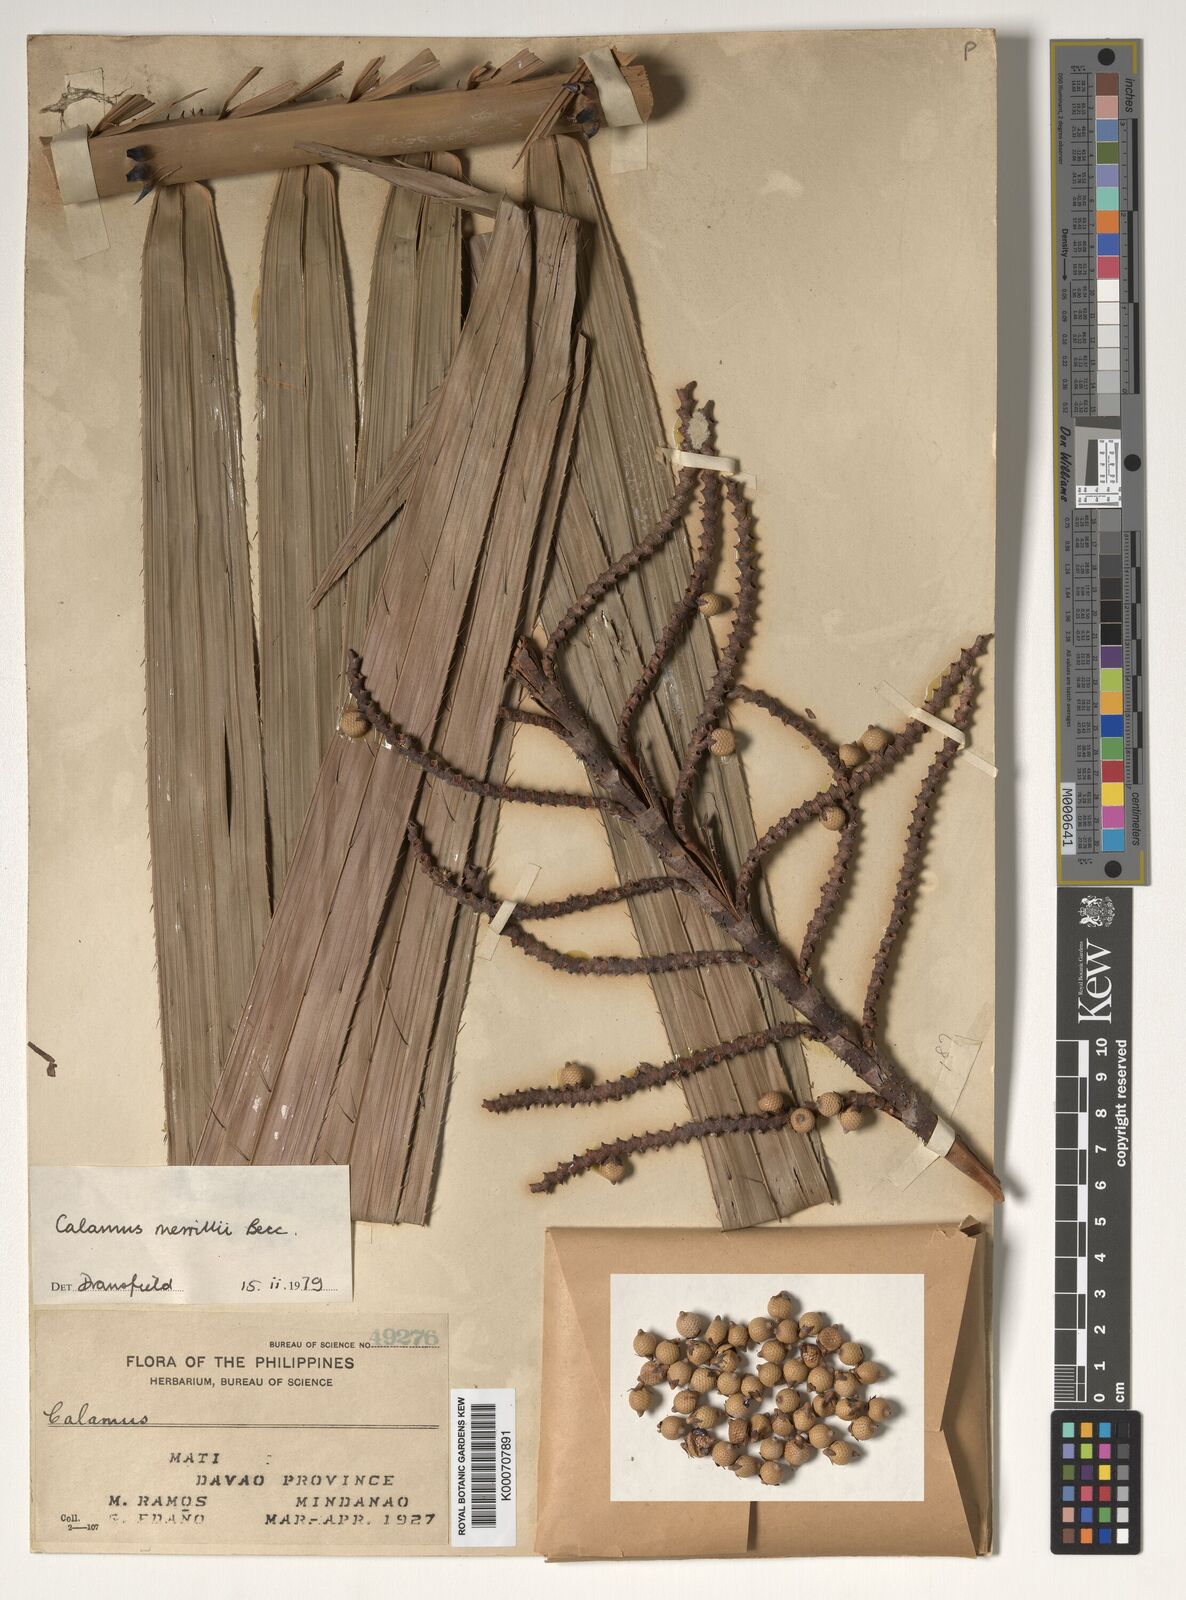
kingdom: Plantae
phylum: Tracheophyta
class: Liliopsida
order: Arecales
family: Arecaceae
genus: Calamus
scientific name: Calamus zollingeri
